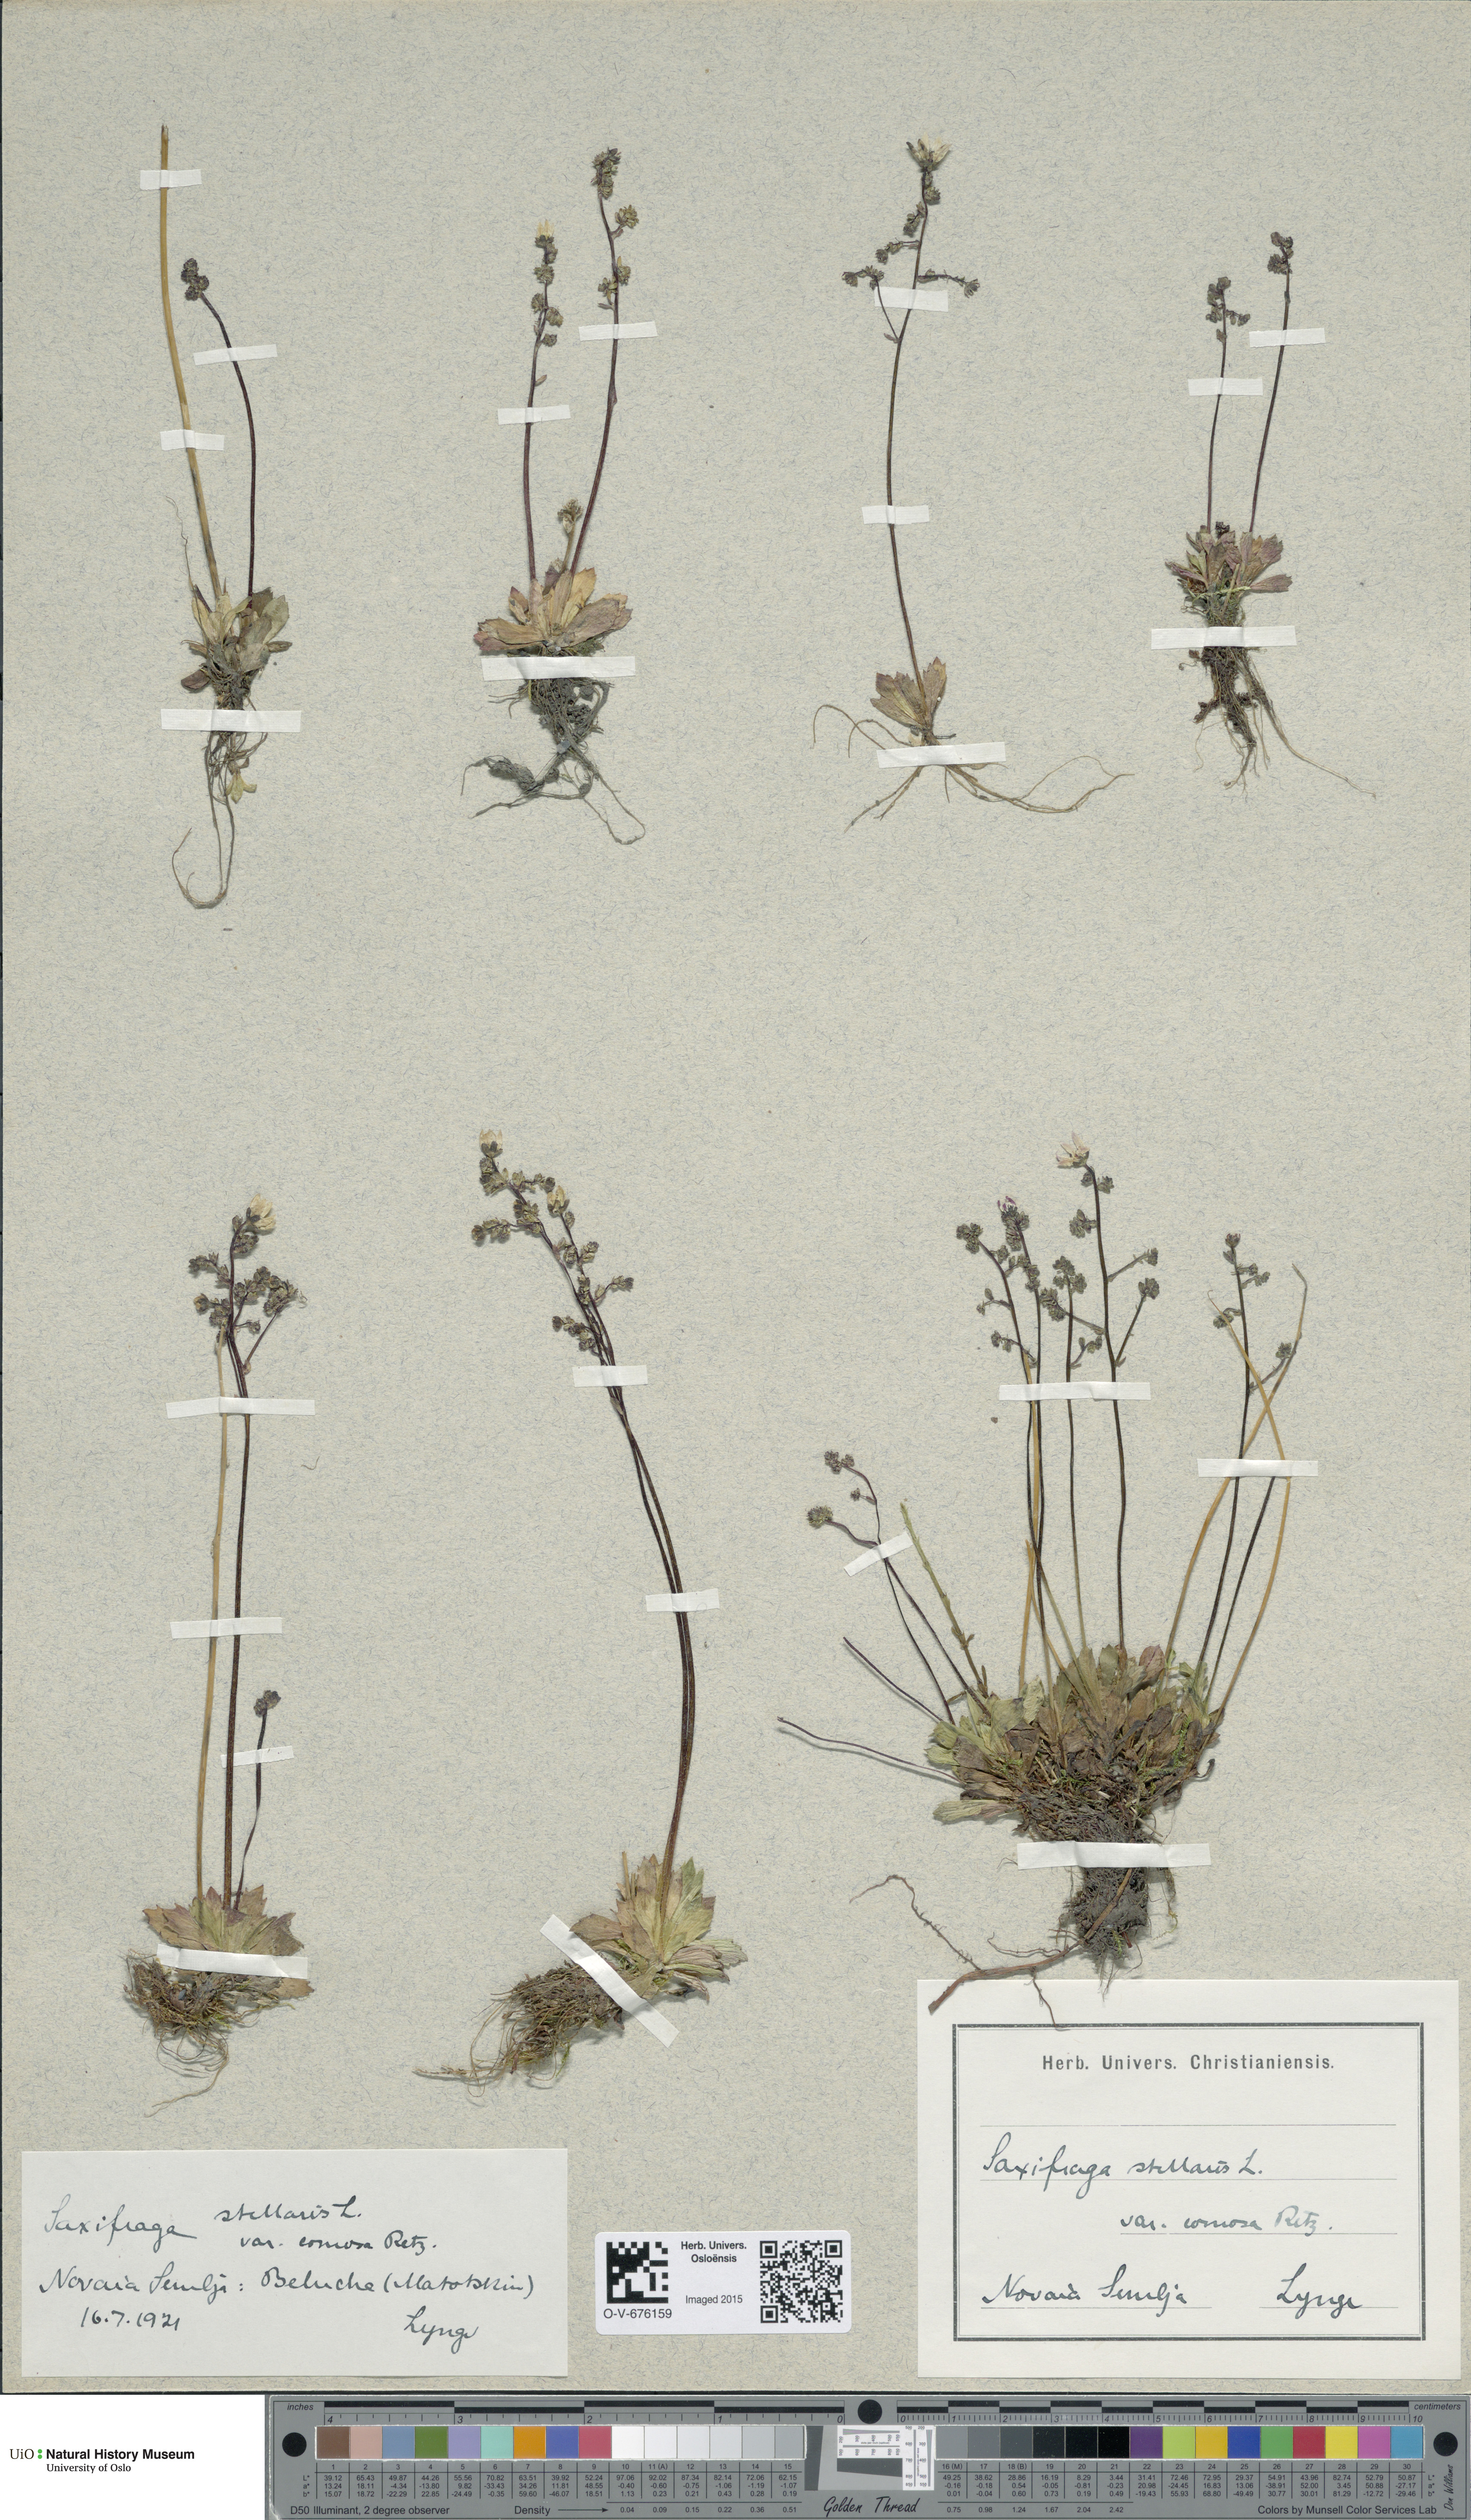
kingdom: Plantae
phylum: Tracheophyta
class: Magnoliopsida
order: Saxifragales
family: Saxifragaceae
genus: Micranthes
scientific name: Micranthes foliolosa
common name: Leafystem saxifrage
